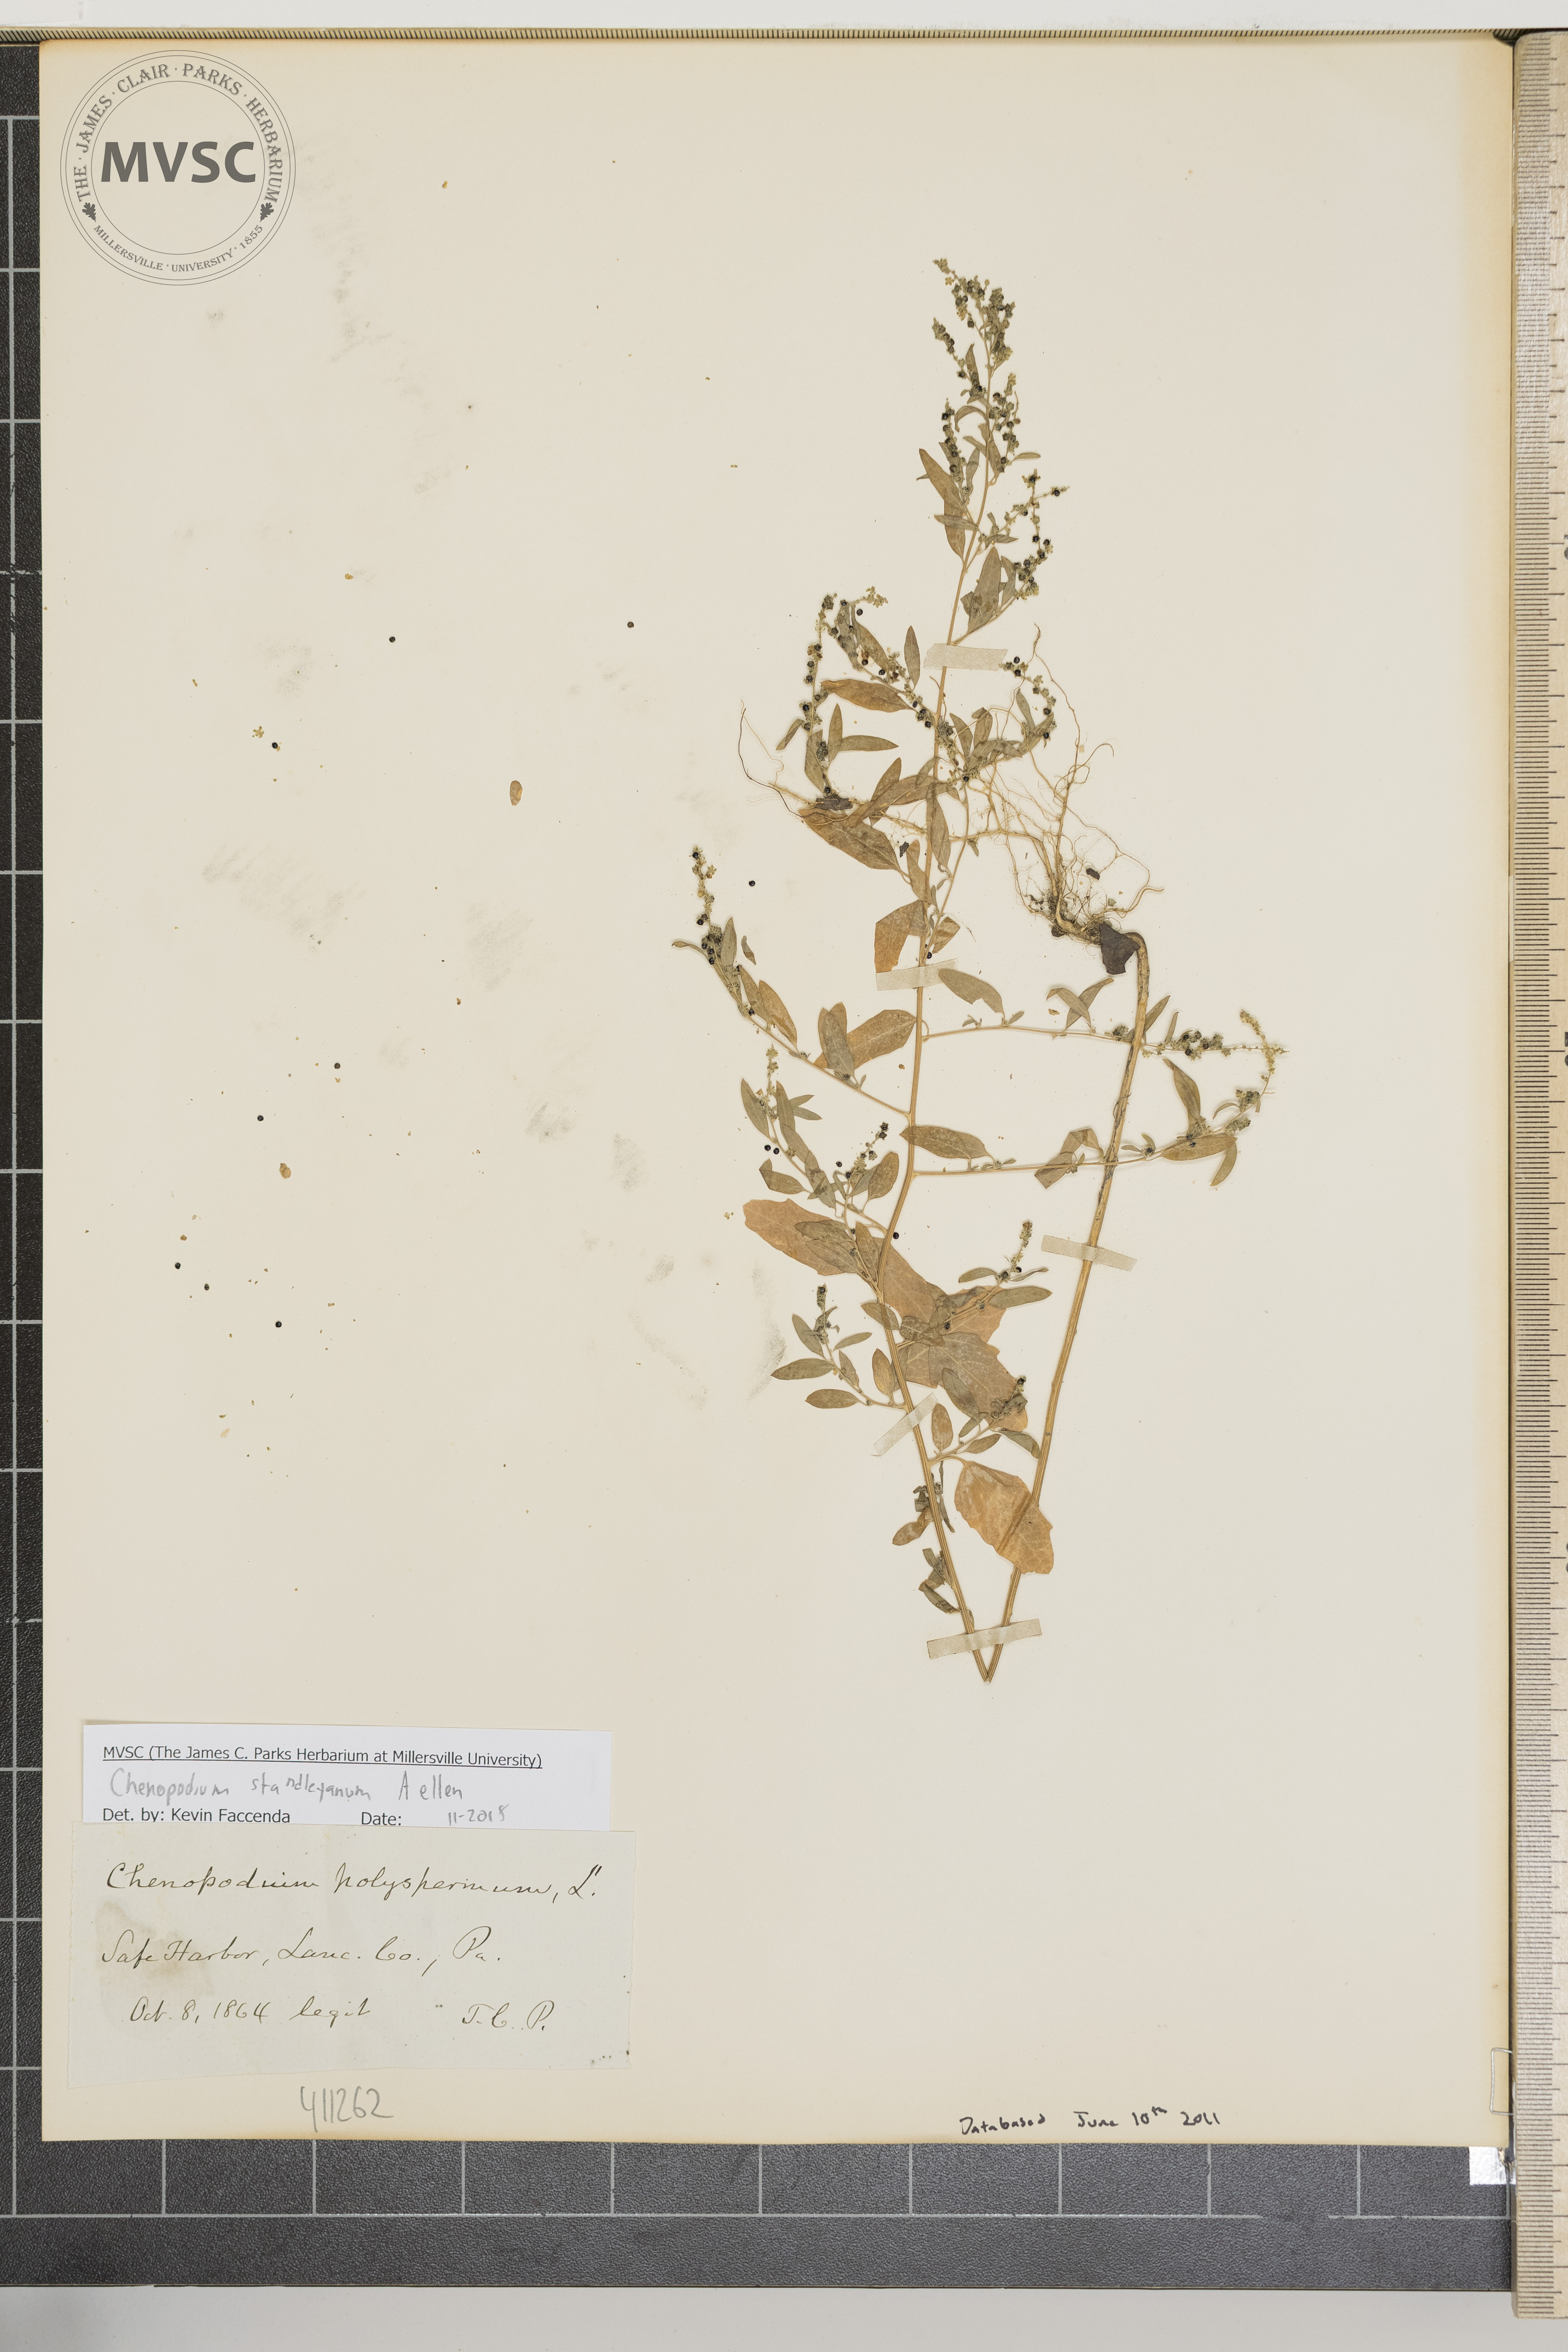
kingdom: Plantae
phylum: Tracheophyta
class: Magnoliopsida
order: Caryophyllales
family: Amaranthaceae
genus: Chenopodiastrum
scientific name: Chenopodiastrum standleyanum
